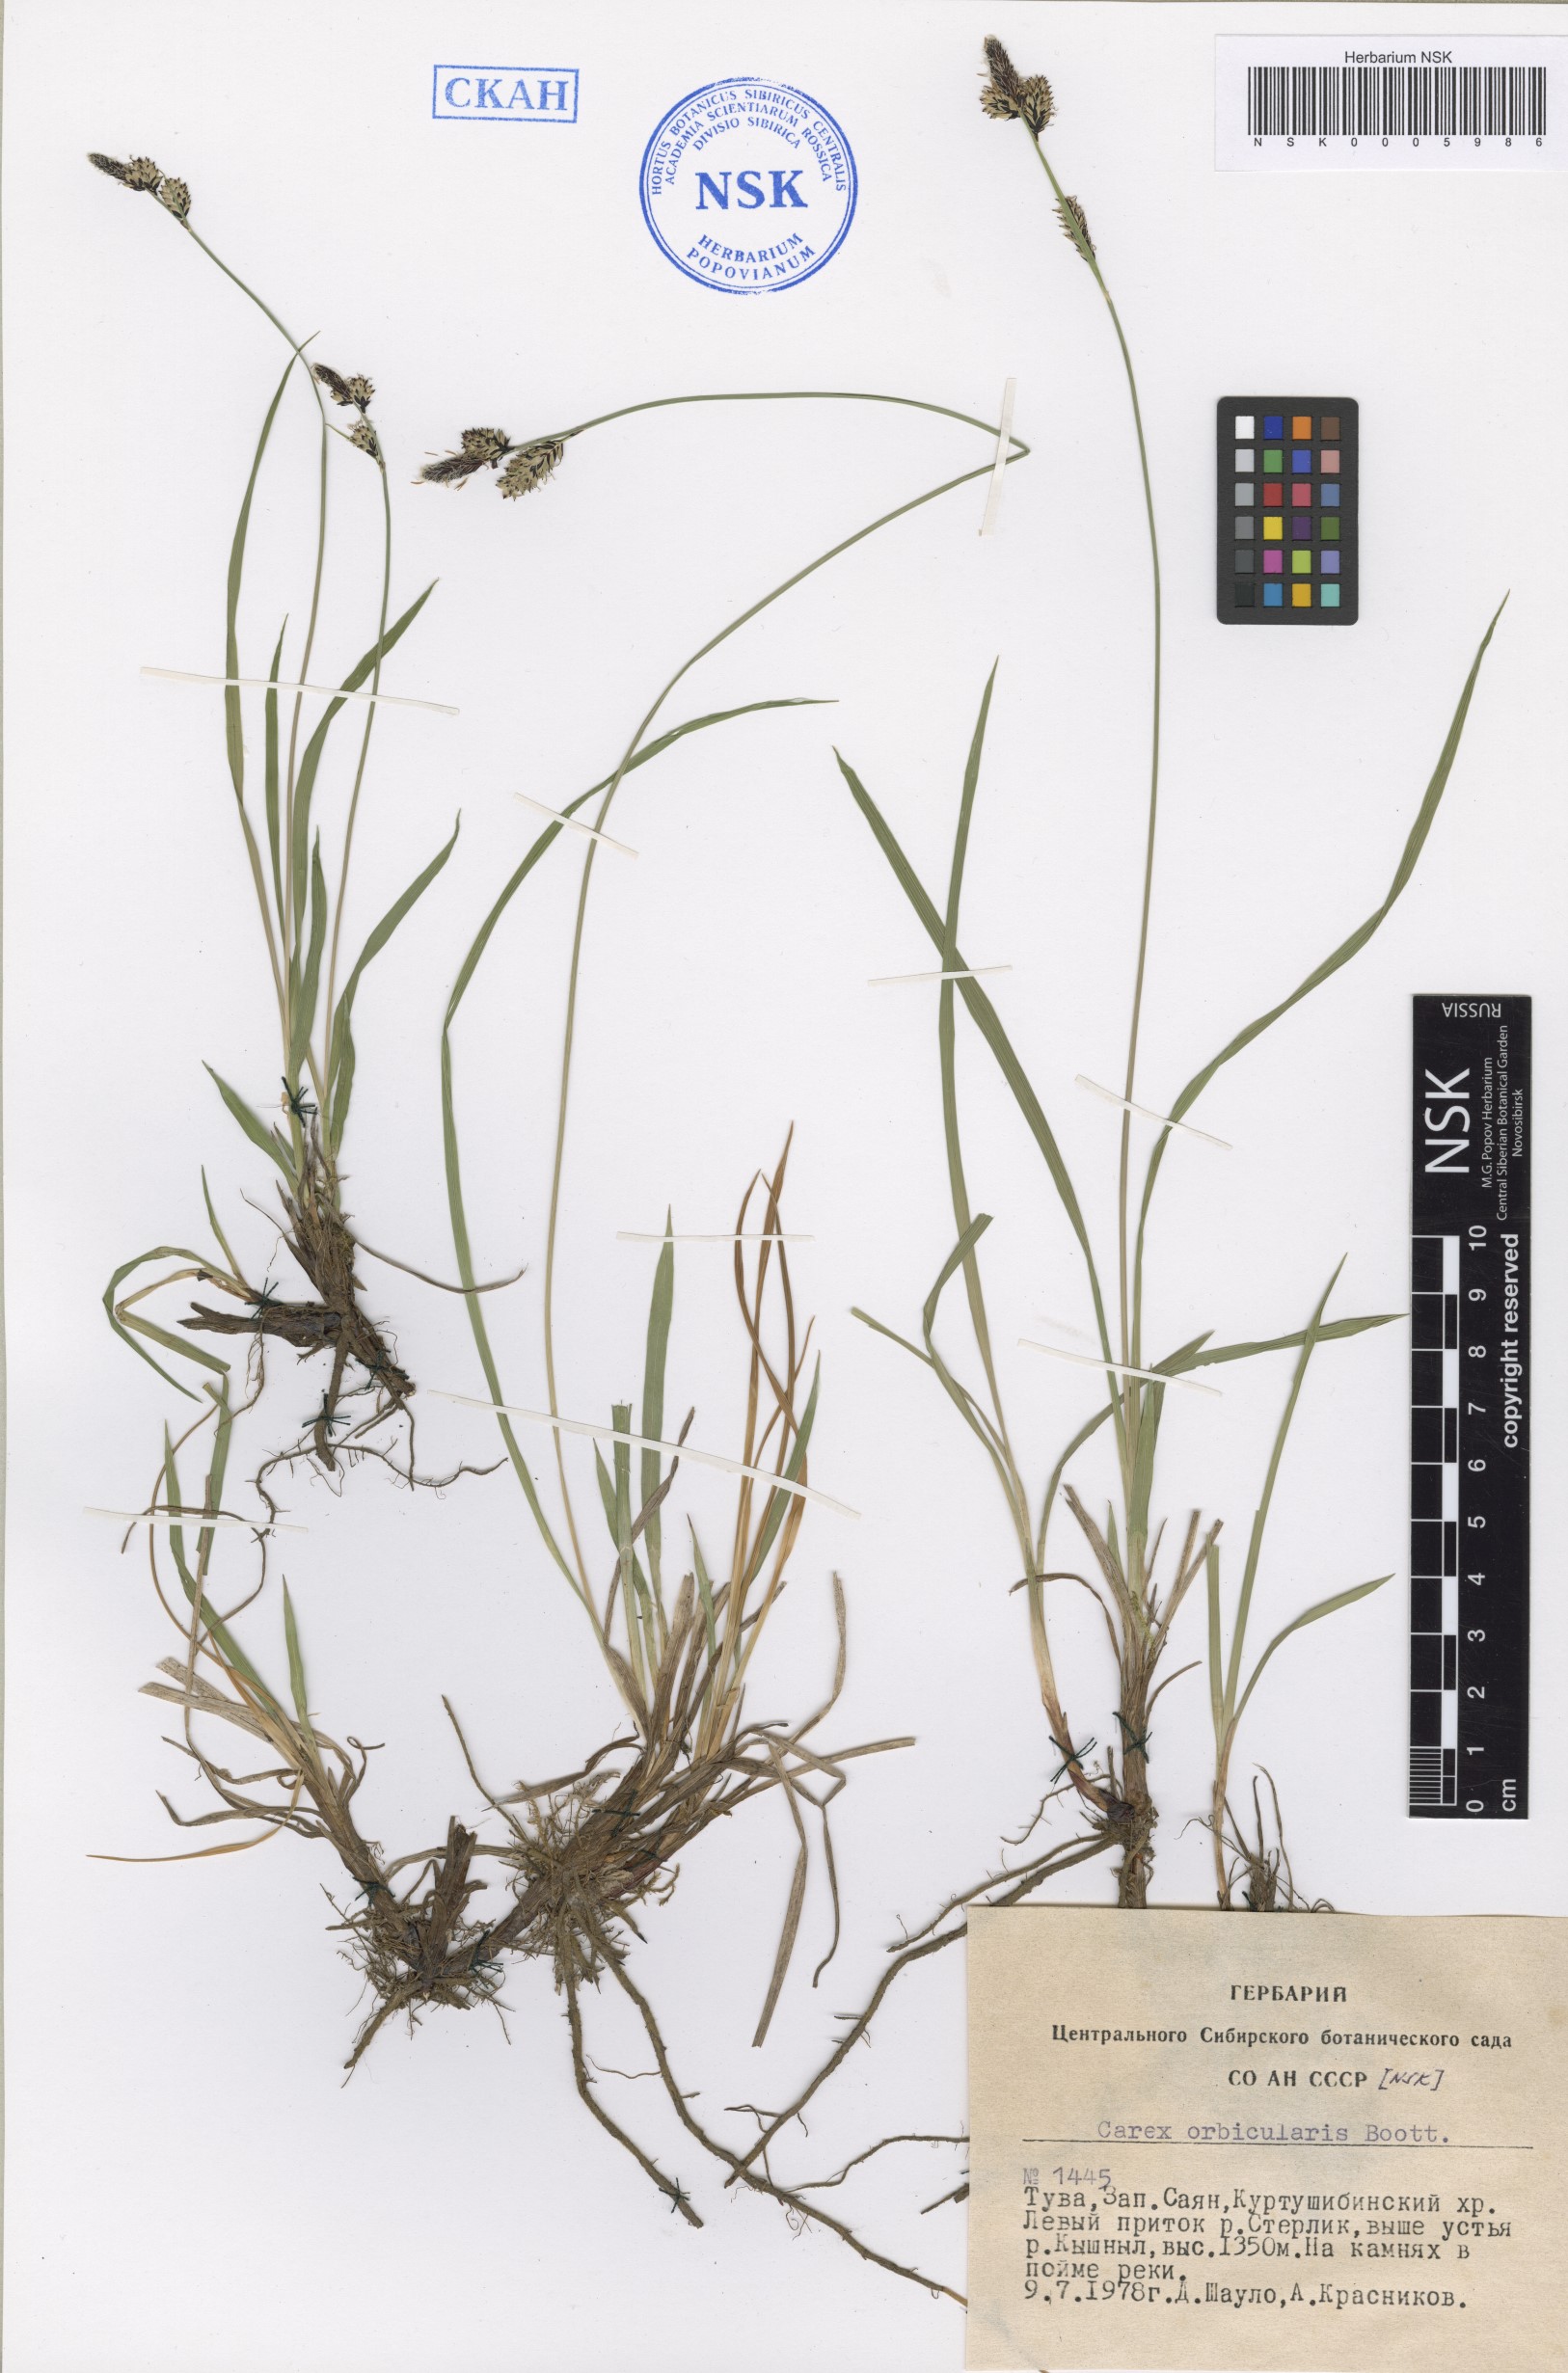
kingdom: Plantae
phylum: Tracheophyta
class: Liliopsida
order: Poales
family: Cyperaceae
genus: Carex
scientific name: Carex orbicularis
